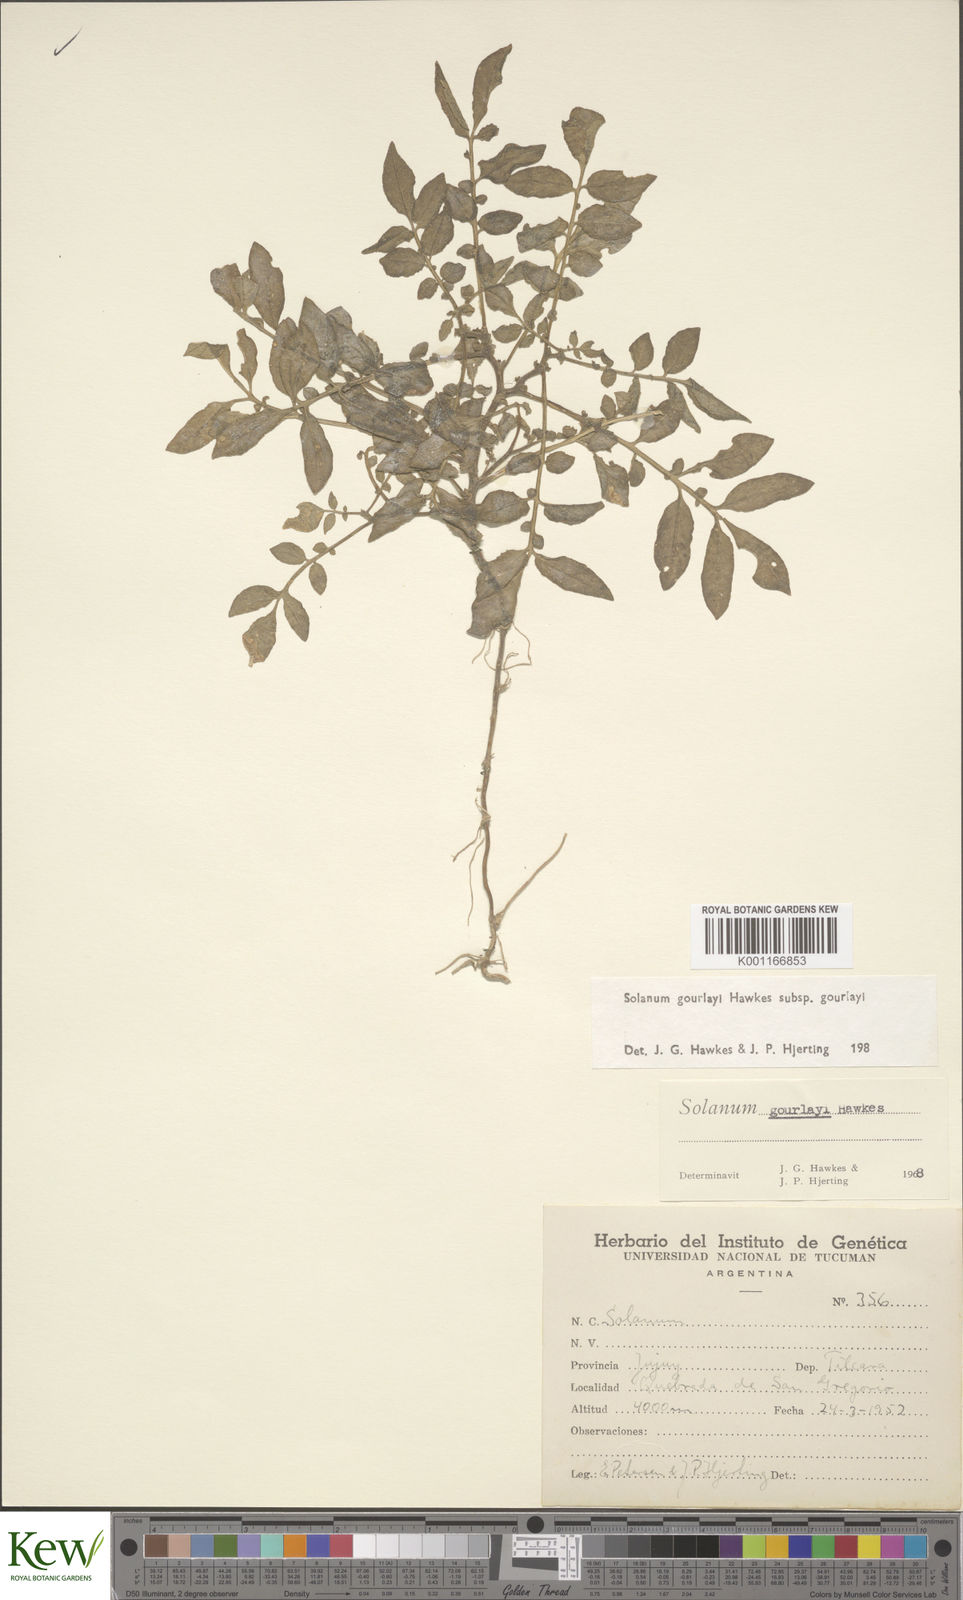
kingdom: Plantae
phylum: Tracheophyta
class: Magnoliopsida
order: Solanales
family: Solanaceae
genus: Solanum
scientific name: Solanum brevicaule
